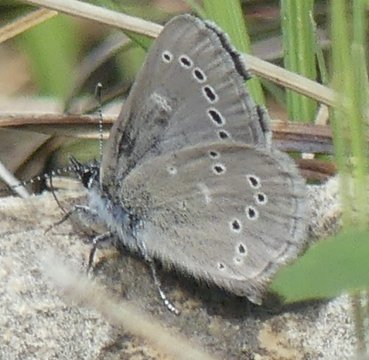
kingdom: Animalia
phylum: Arthropoda
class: Insecta
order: Lepidoptera
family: Lycaenidae
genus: Glaucopsyche
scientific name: Glaucopsyche lygdamus
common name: Silvery Blue
